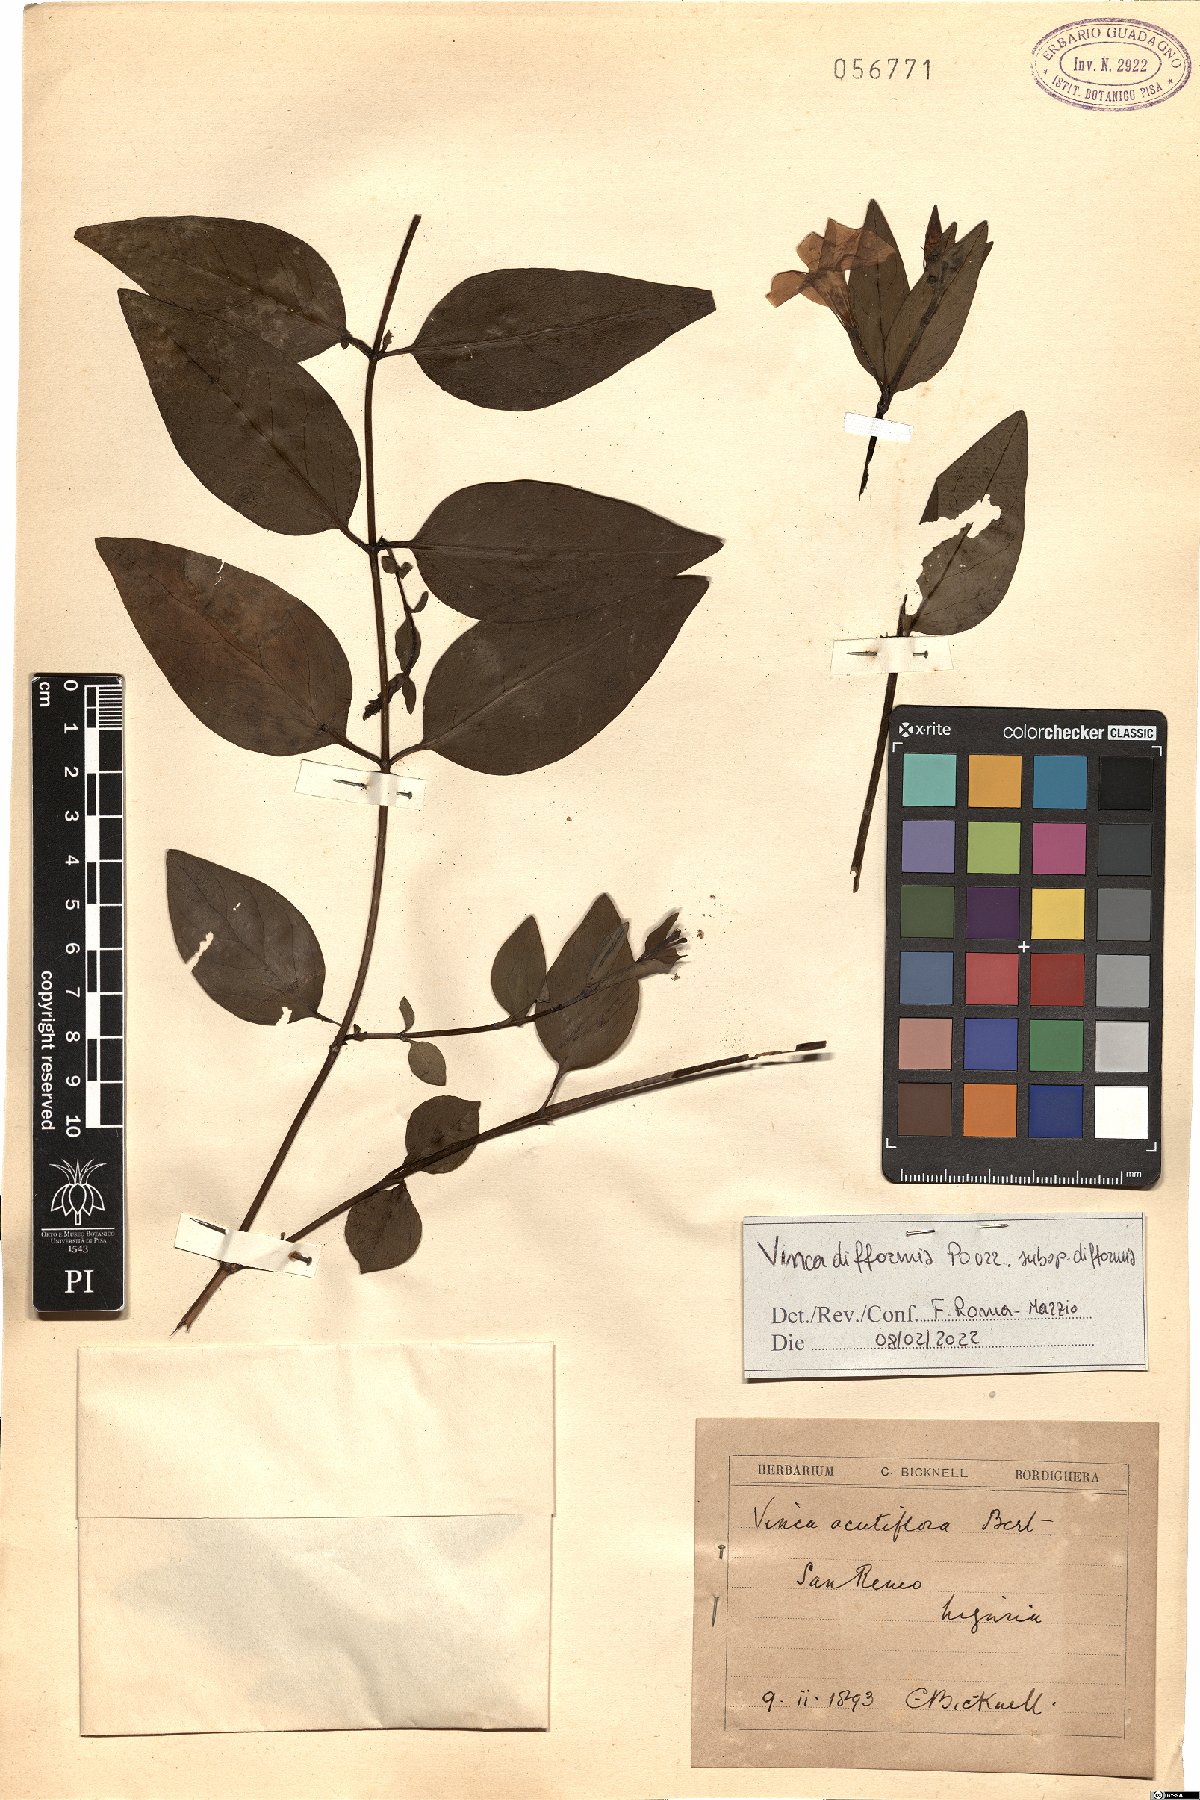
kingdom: Plantae
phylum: Tracheophyta
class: Magnoliopsida
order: Gentianales
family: Apocynaceae
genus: Vinca
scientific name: Vinca difformis
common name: Intermediate periwinkle
